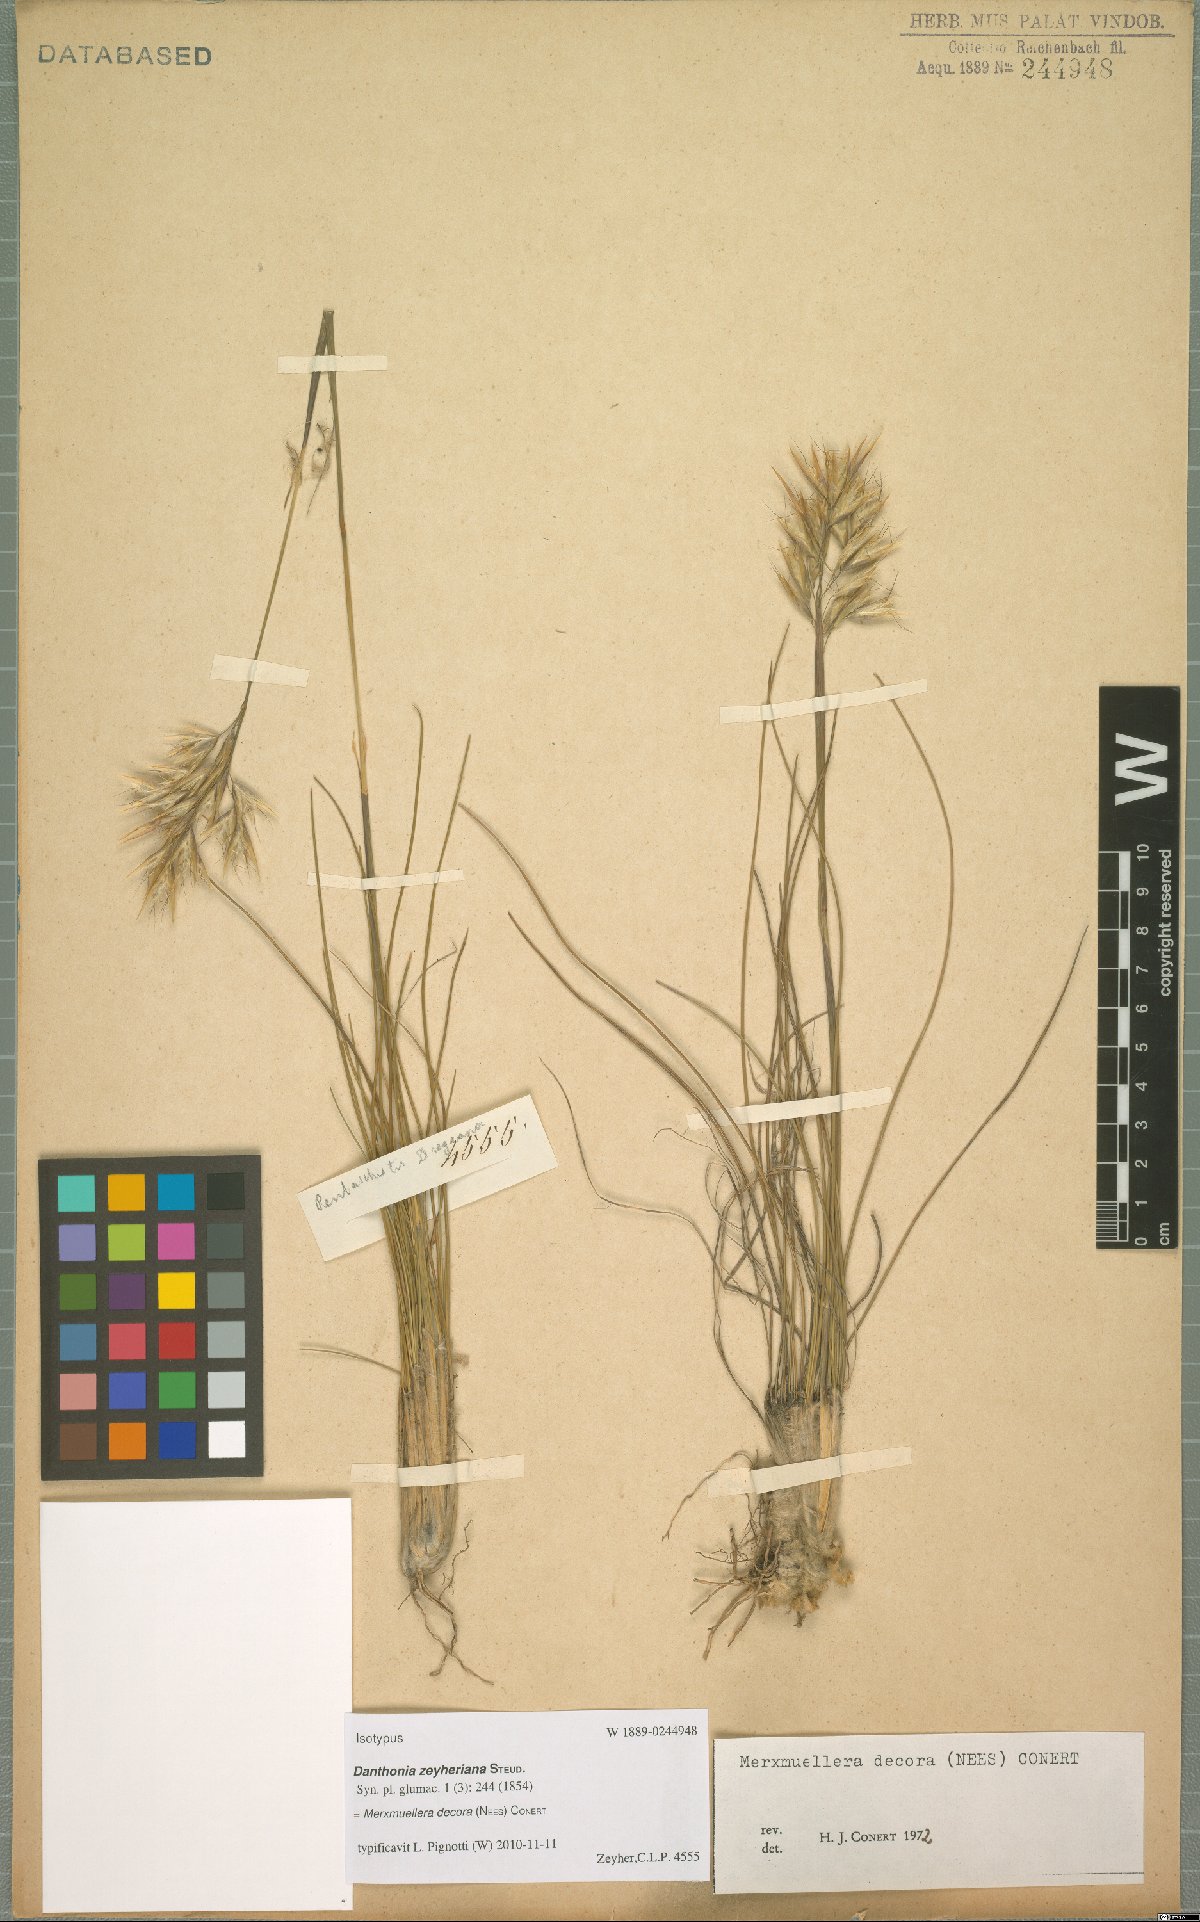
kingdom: Plantae
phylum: Tracheophyta
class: Liliopsida
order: Poales
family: Poaceae
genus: Geochloa
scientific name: Geochloa decora
